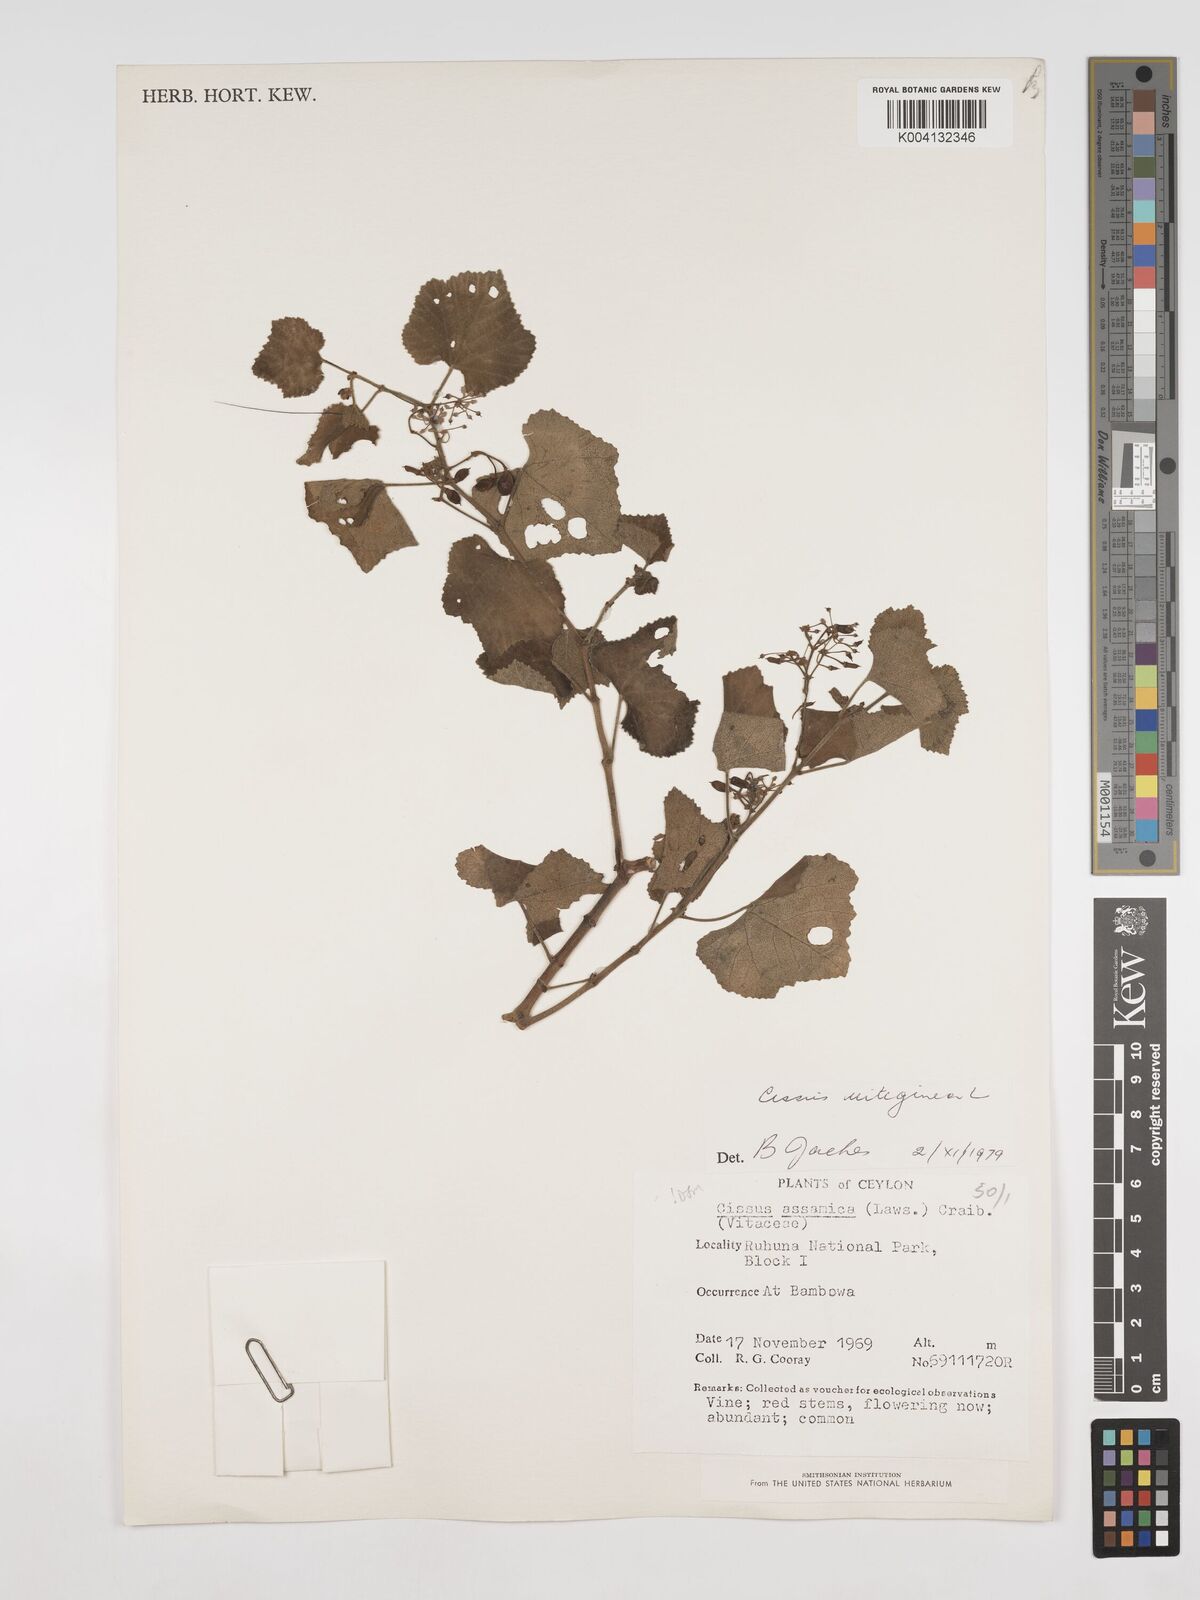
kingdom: Plantae
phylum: Tracheophyta
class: Magnoliopsida
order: Vitales
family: Vitaceae
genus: Cissus
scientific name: Cissus vitiginea
